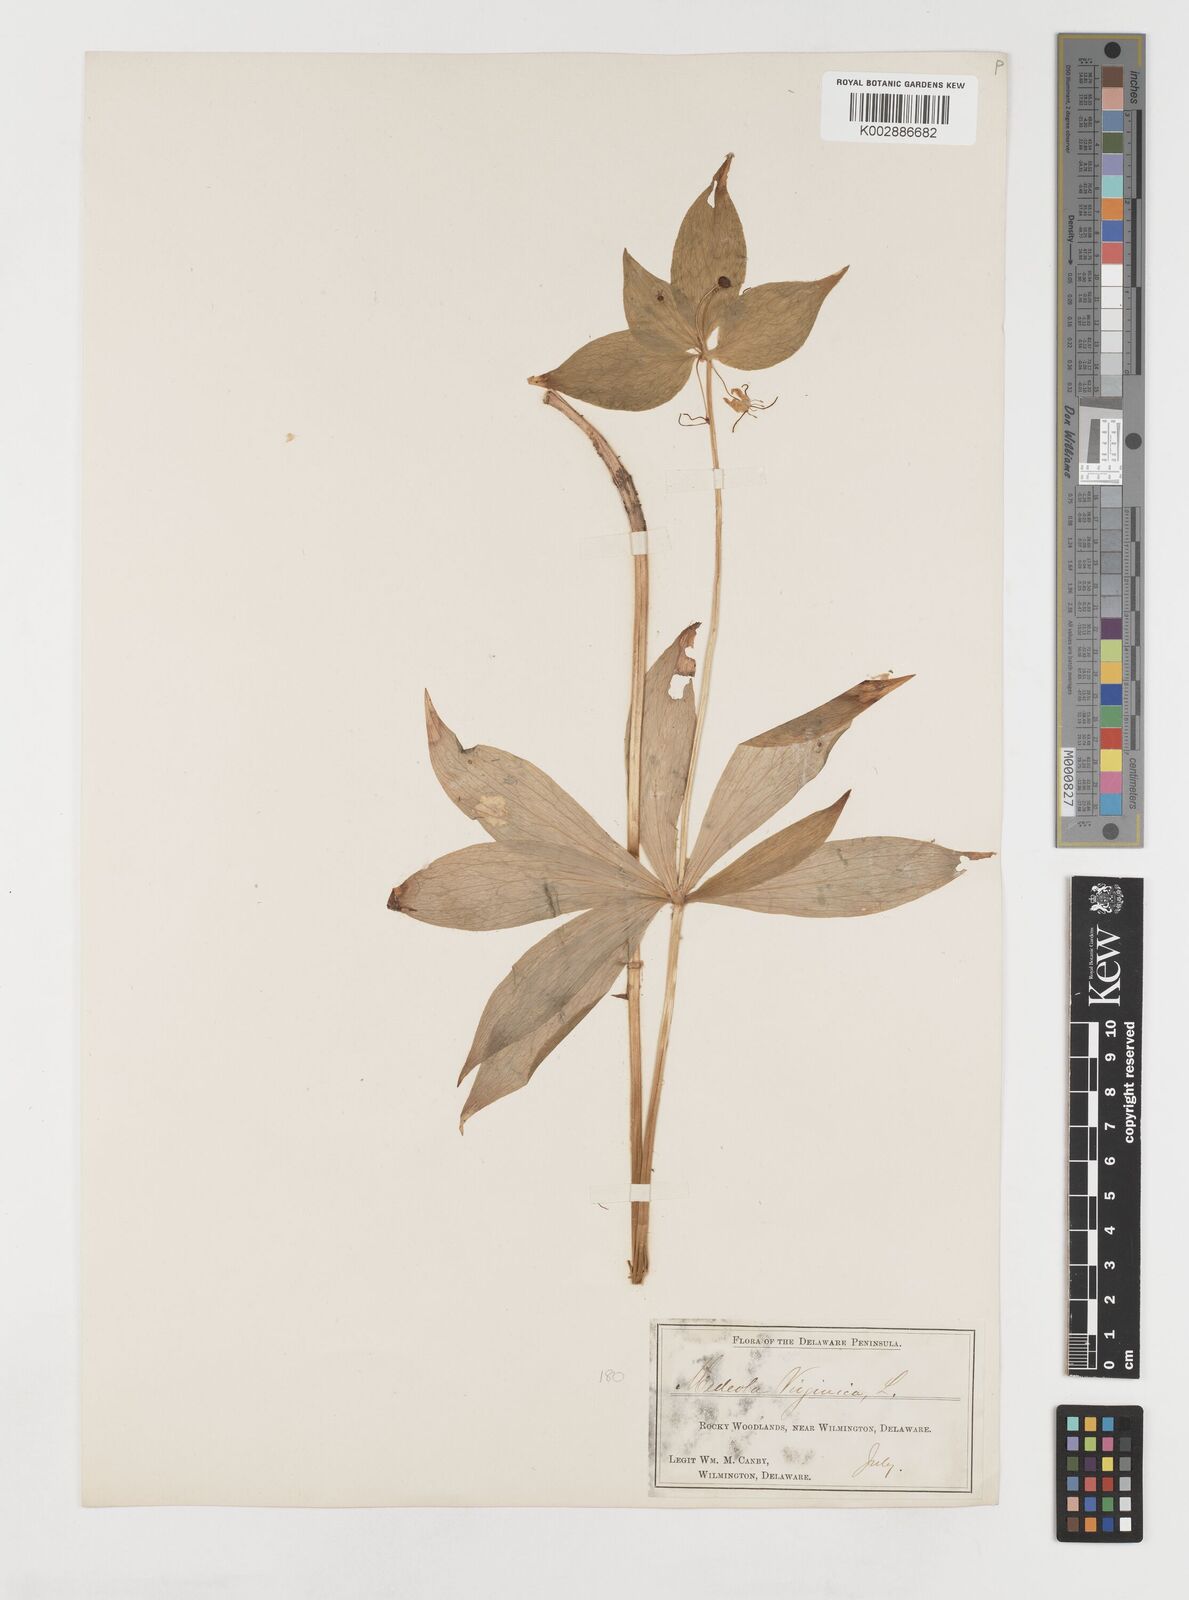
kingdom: Plantae
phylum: Tracheophyta
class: Liliopsida
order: Liliales
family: Liliaceae
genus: Medeola
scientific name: Medeola virginiana
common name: Indian cucumber-root
